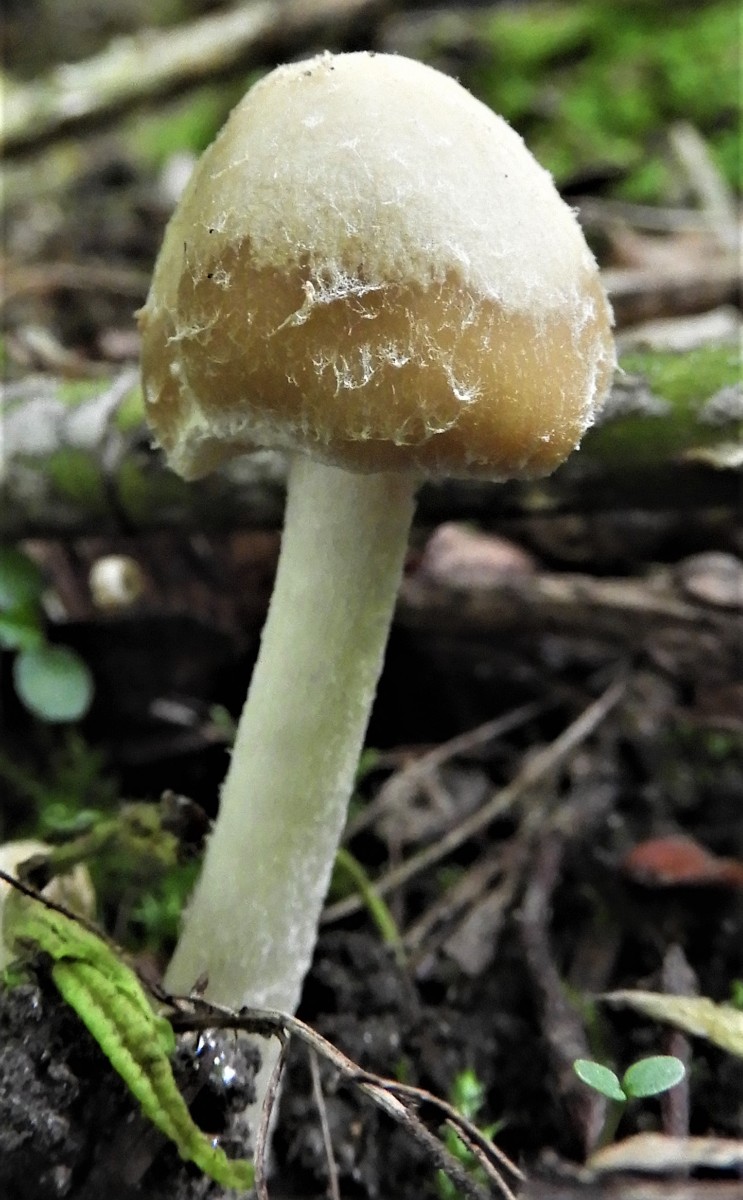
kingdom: Fungi
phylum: Basidiomycota
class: Agaricomycetes
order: Agaricales
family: Psathyrellaceae
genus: Candolleomyces
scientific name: Candolleomyces candolleanus
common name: Candolles mørkhat
